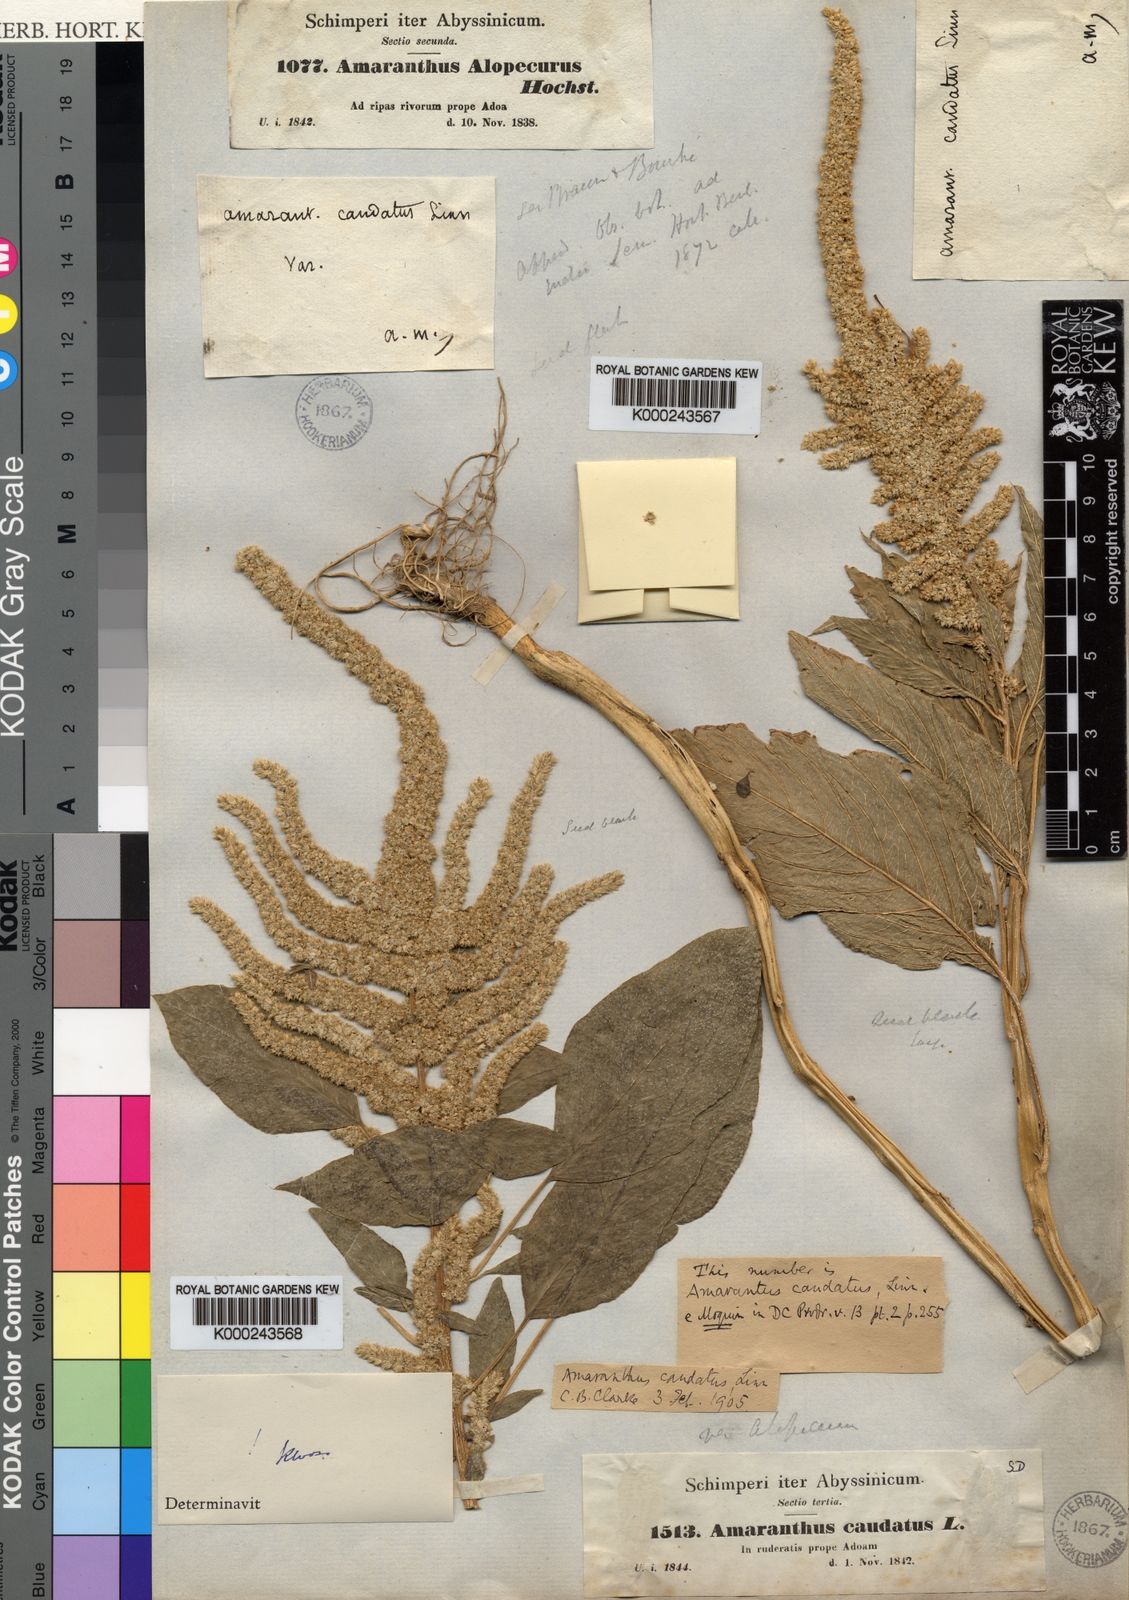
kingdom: Plantae
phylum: Tracheophyta
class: Magnoliopsida
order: Caryophyllales
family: Amaranthaceae
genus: Amaranthus
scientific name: Amaranthus caudatus
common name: Love-lies-bleeding
